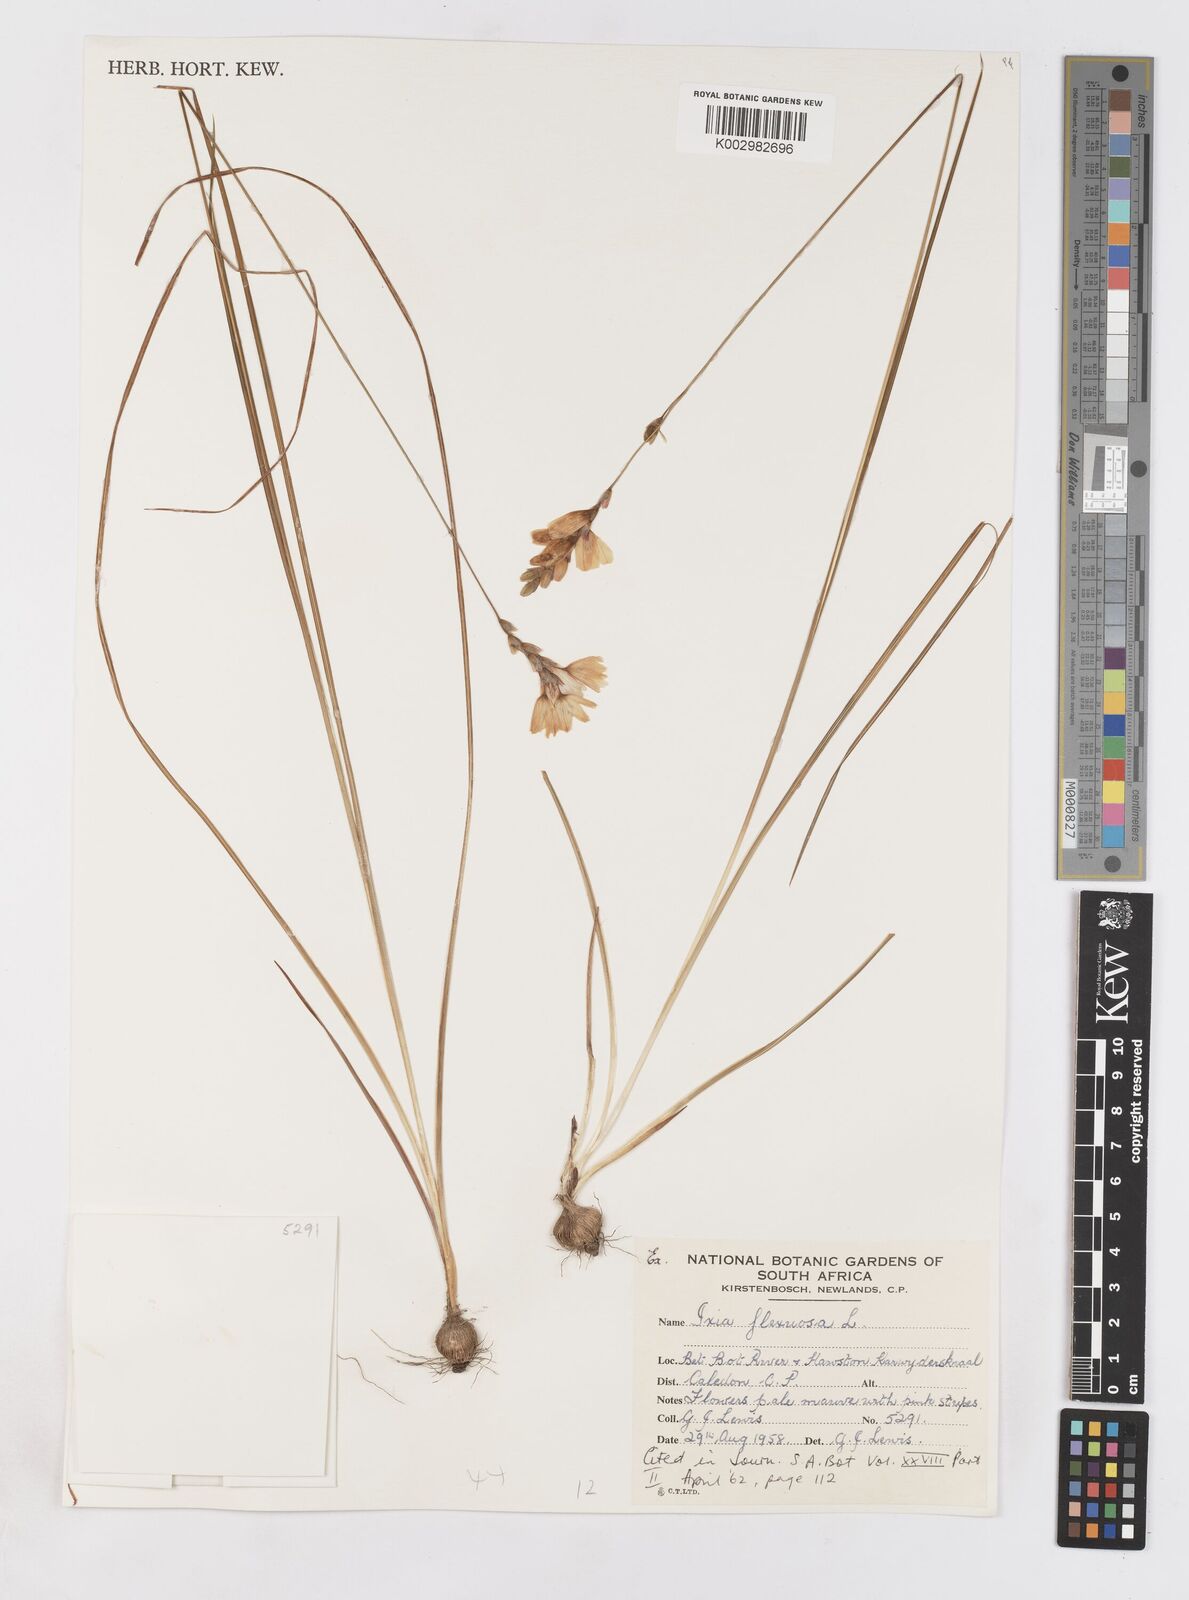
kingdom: Plantae
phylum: Tracheophyta
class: Liliopsida
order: Asparagales
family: Iridaceae
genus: Ixia
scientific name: Ixia flexuosa
